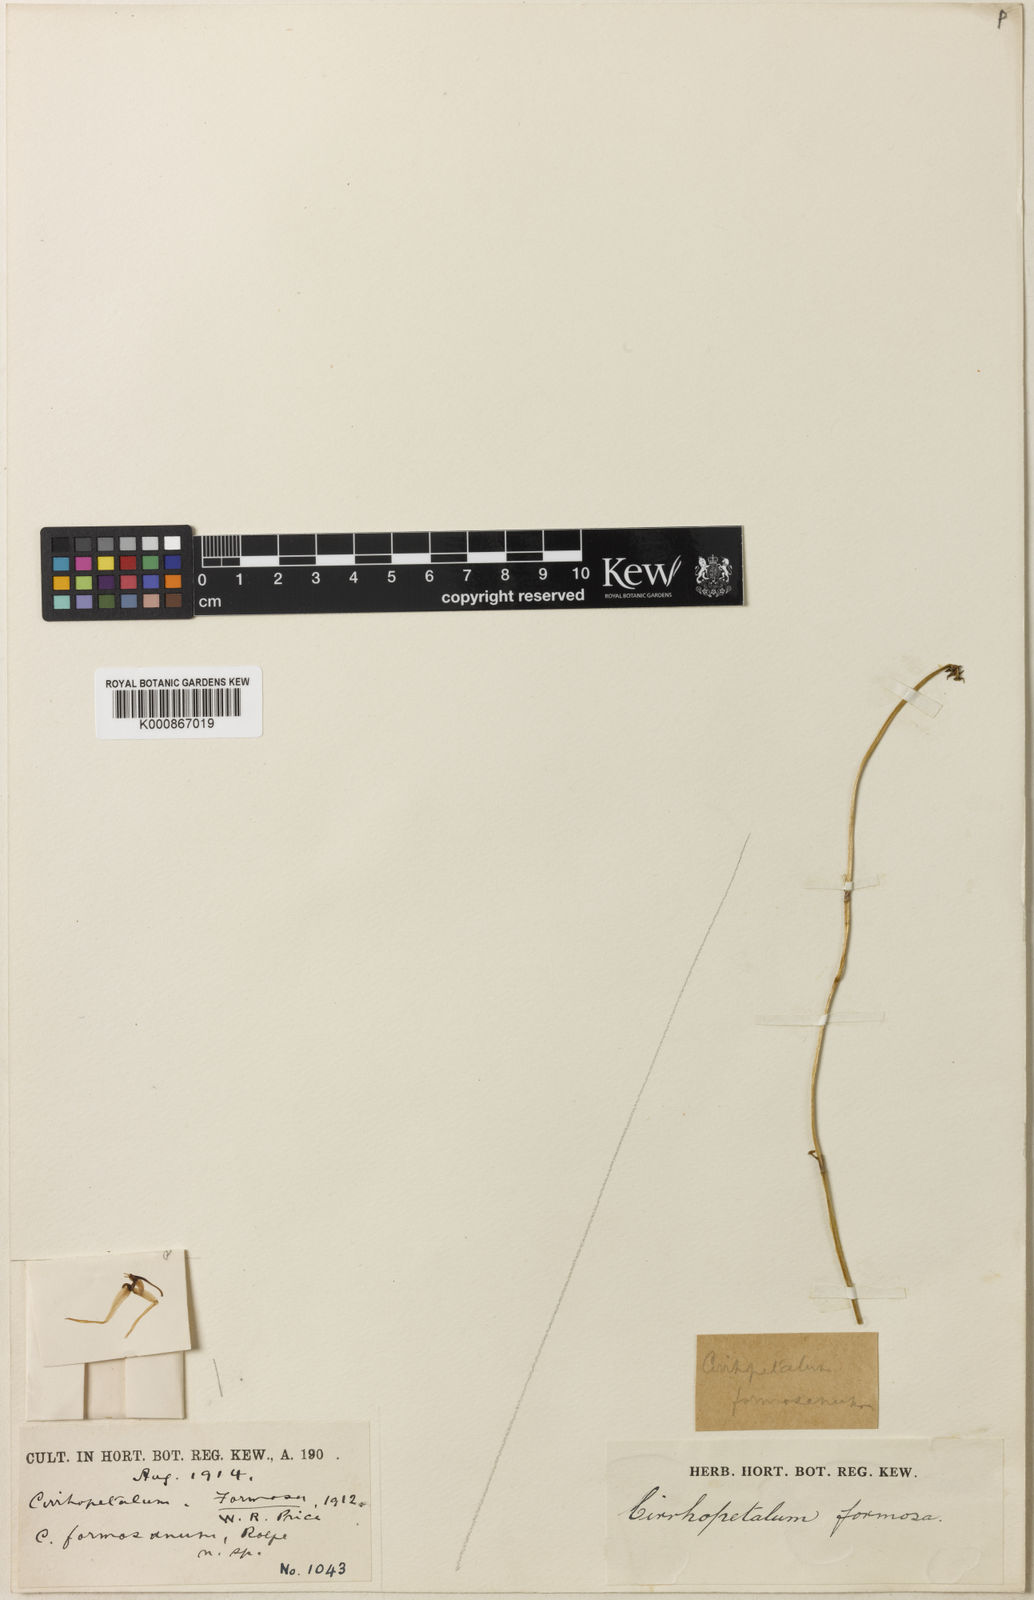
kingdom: Plantae
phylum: Tracheophyta
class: Liliopsida
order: Asparagales
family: Orchidaceae
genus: Bulbophyllum
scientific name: Bulbophyllum macraei
